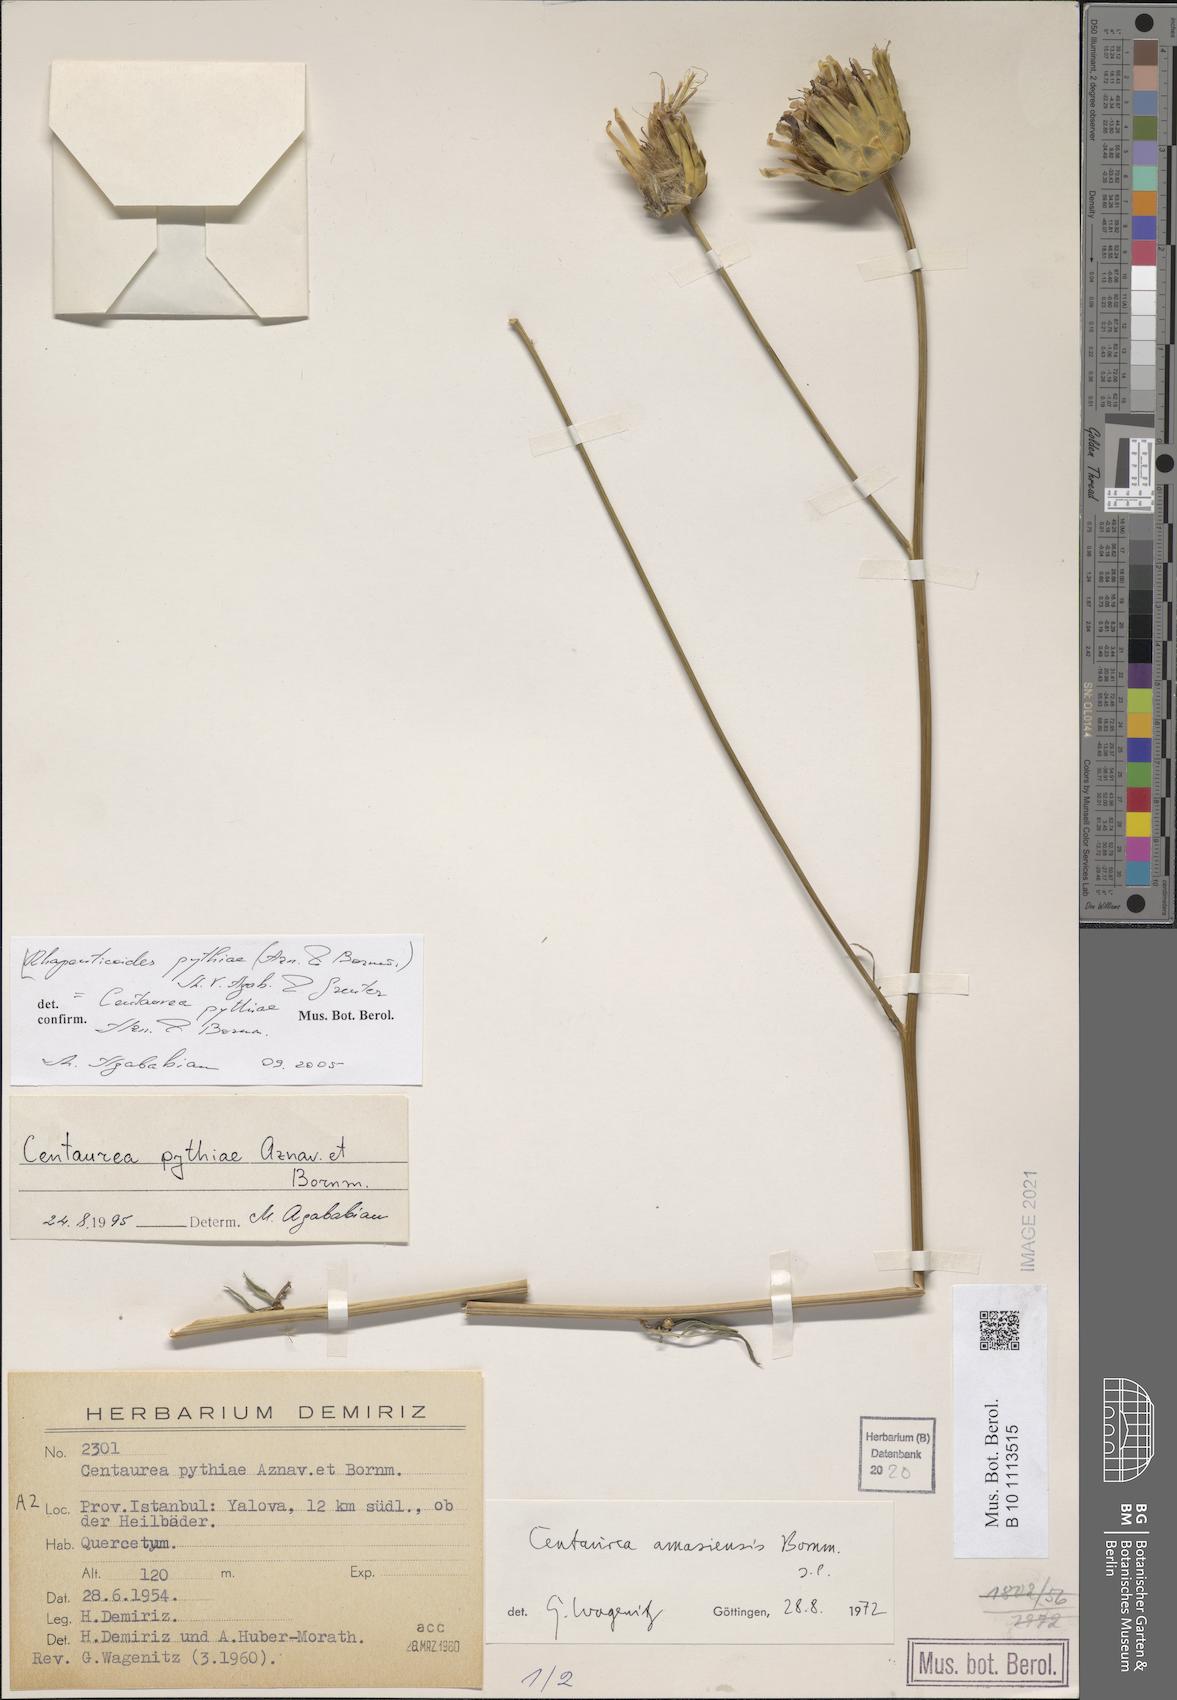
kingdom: Plantae
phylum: Tracheophyta
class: Magnoliopsida
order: Asterales
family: Asteraceae
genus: Rhaponticoides
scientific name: Rhaponticoides pythiae
